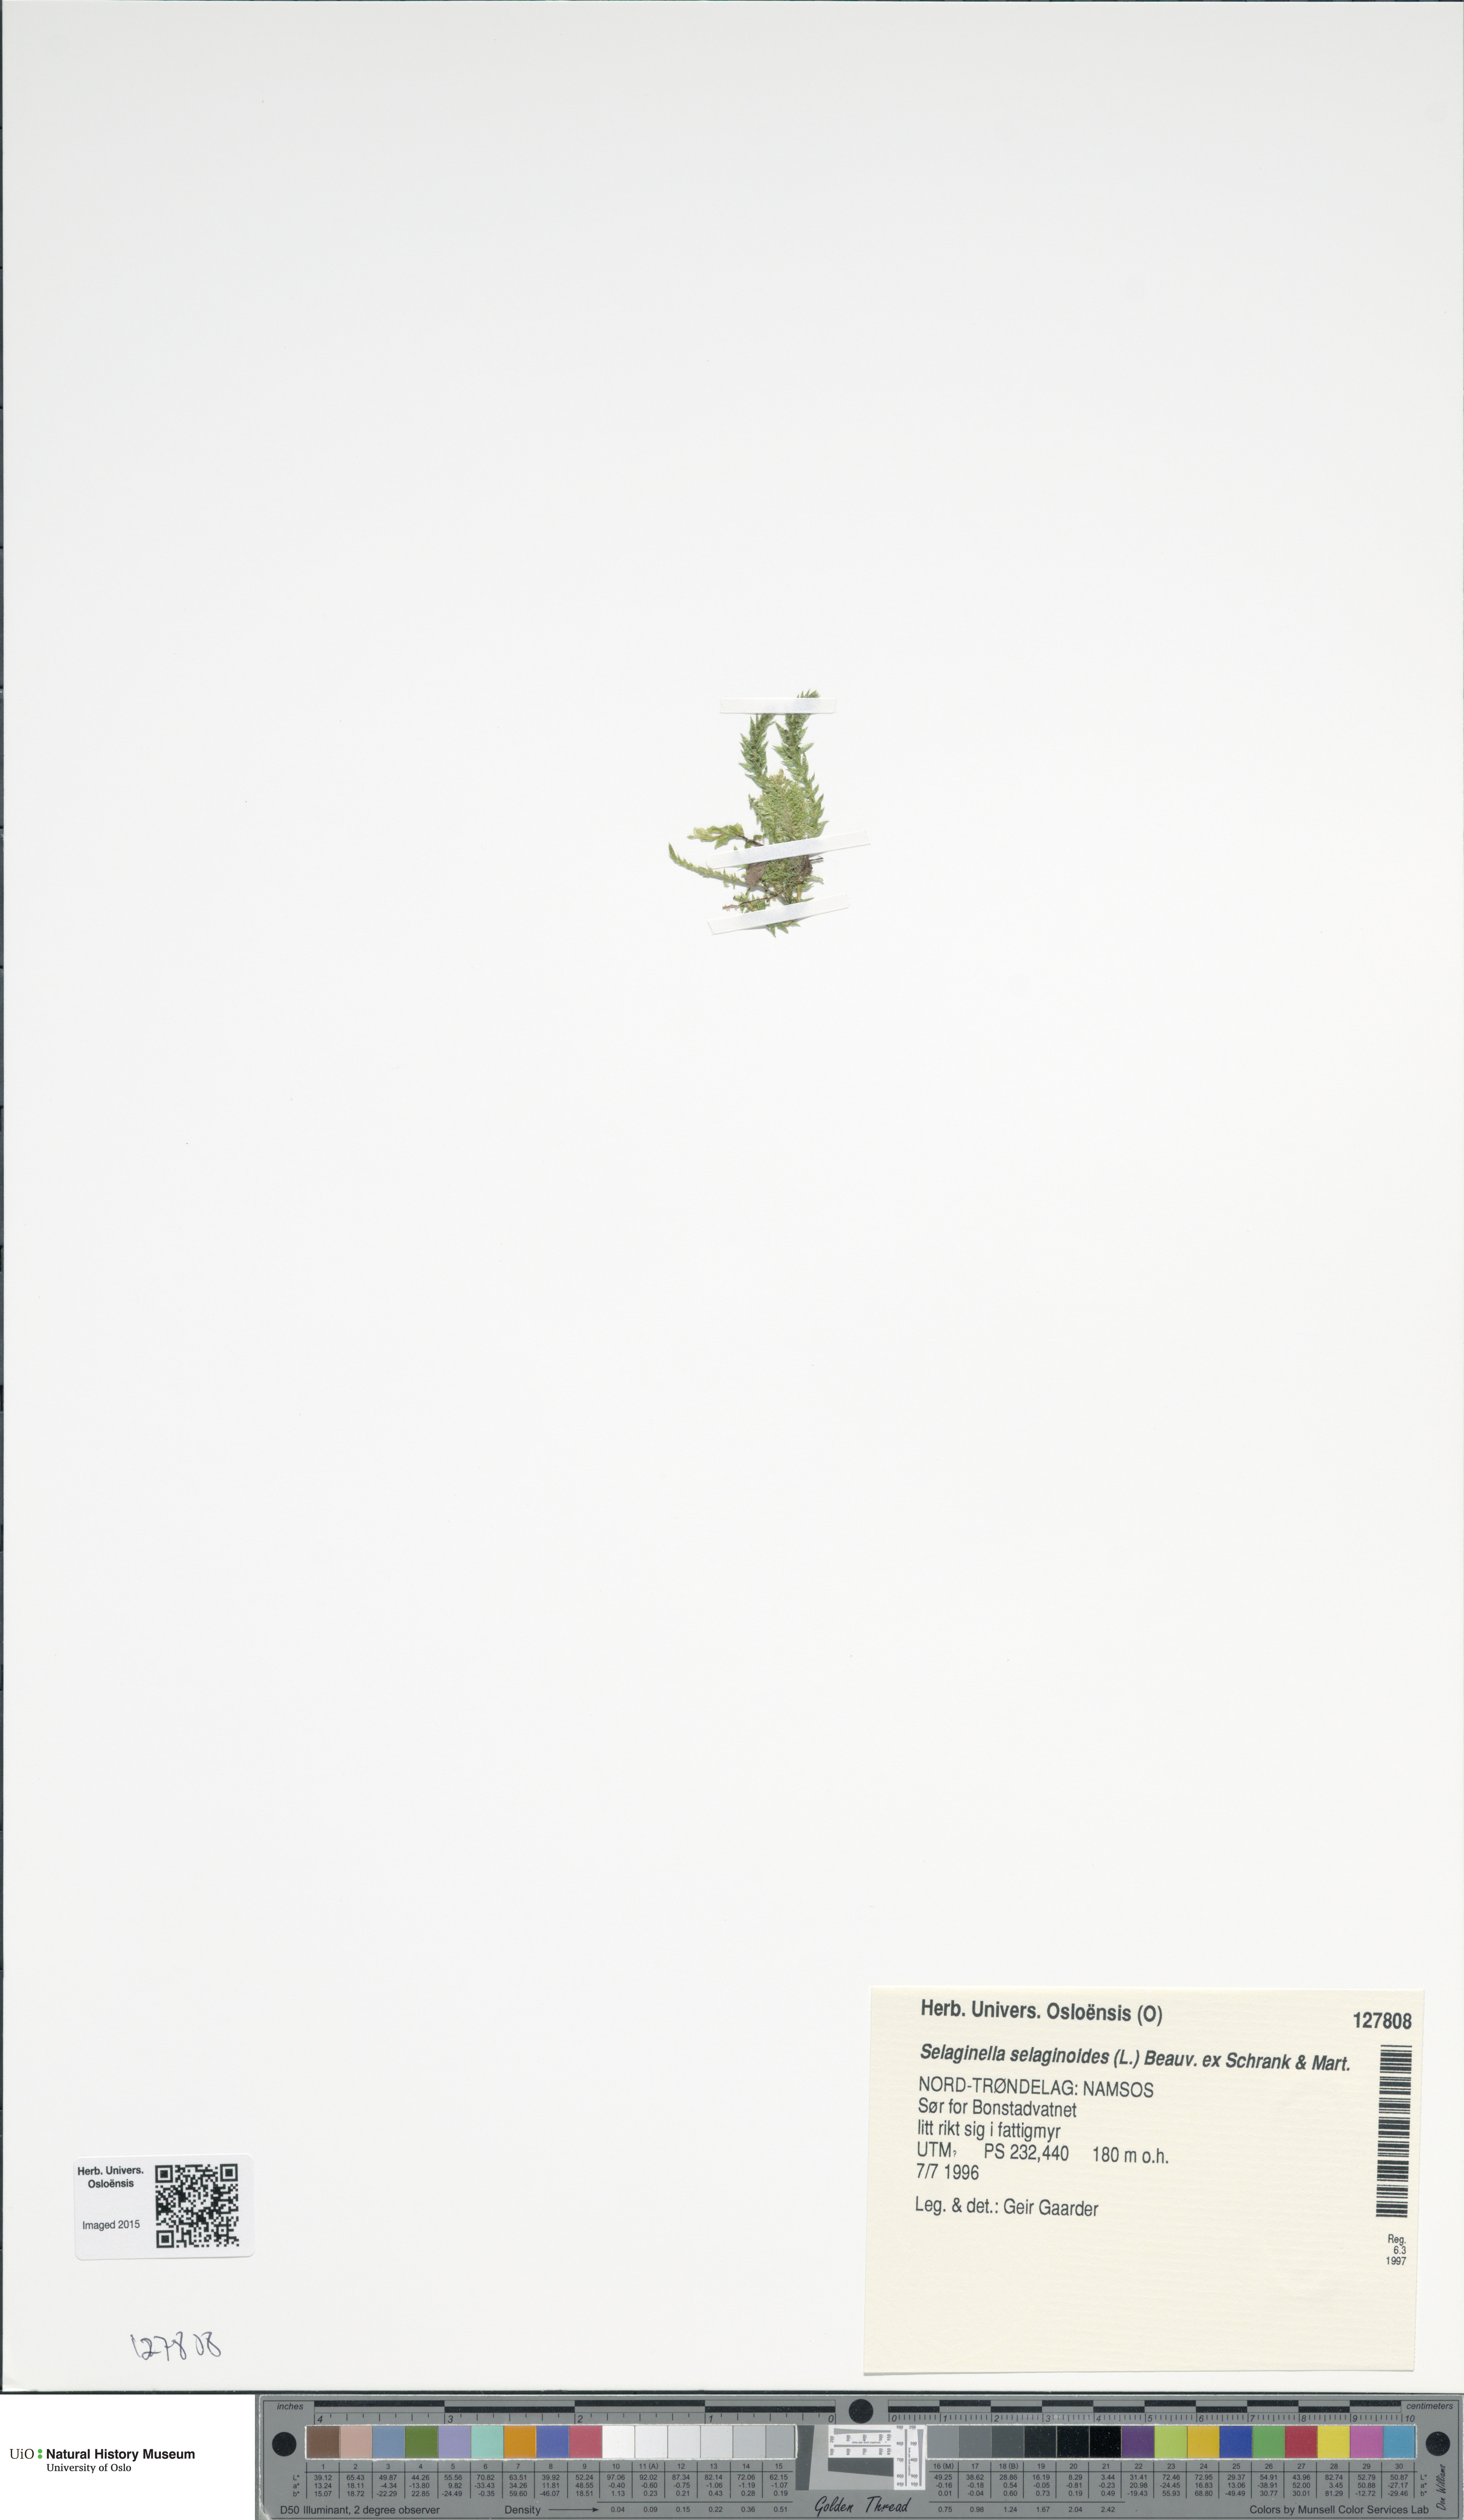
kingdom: Plantae
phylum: Tracheophyta
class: Lycopodiopsida
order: Selaginellales
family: Selaginellaceae
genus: Selaginella
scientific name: Selaginella selaginoides
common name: Prickly mountain-moss
